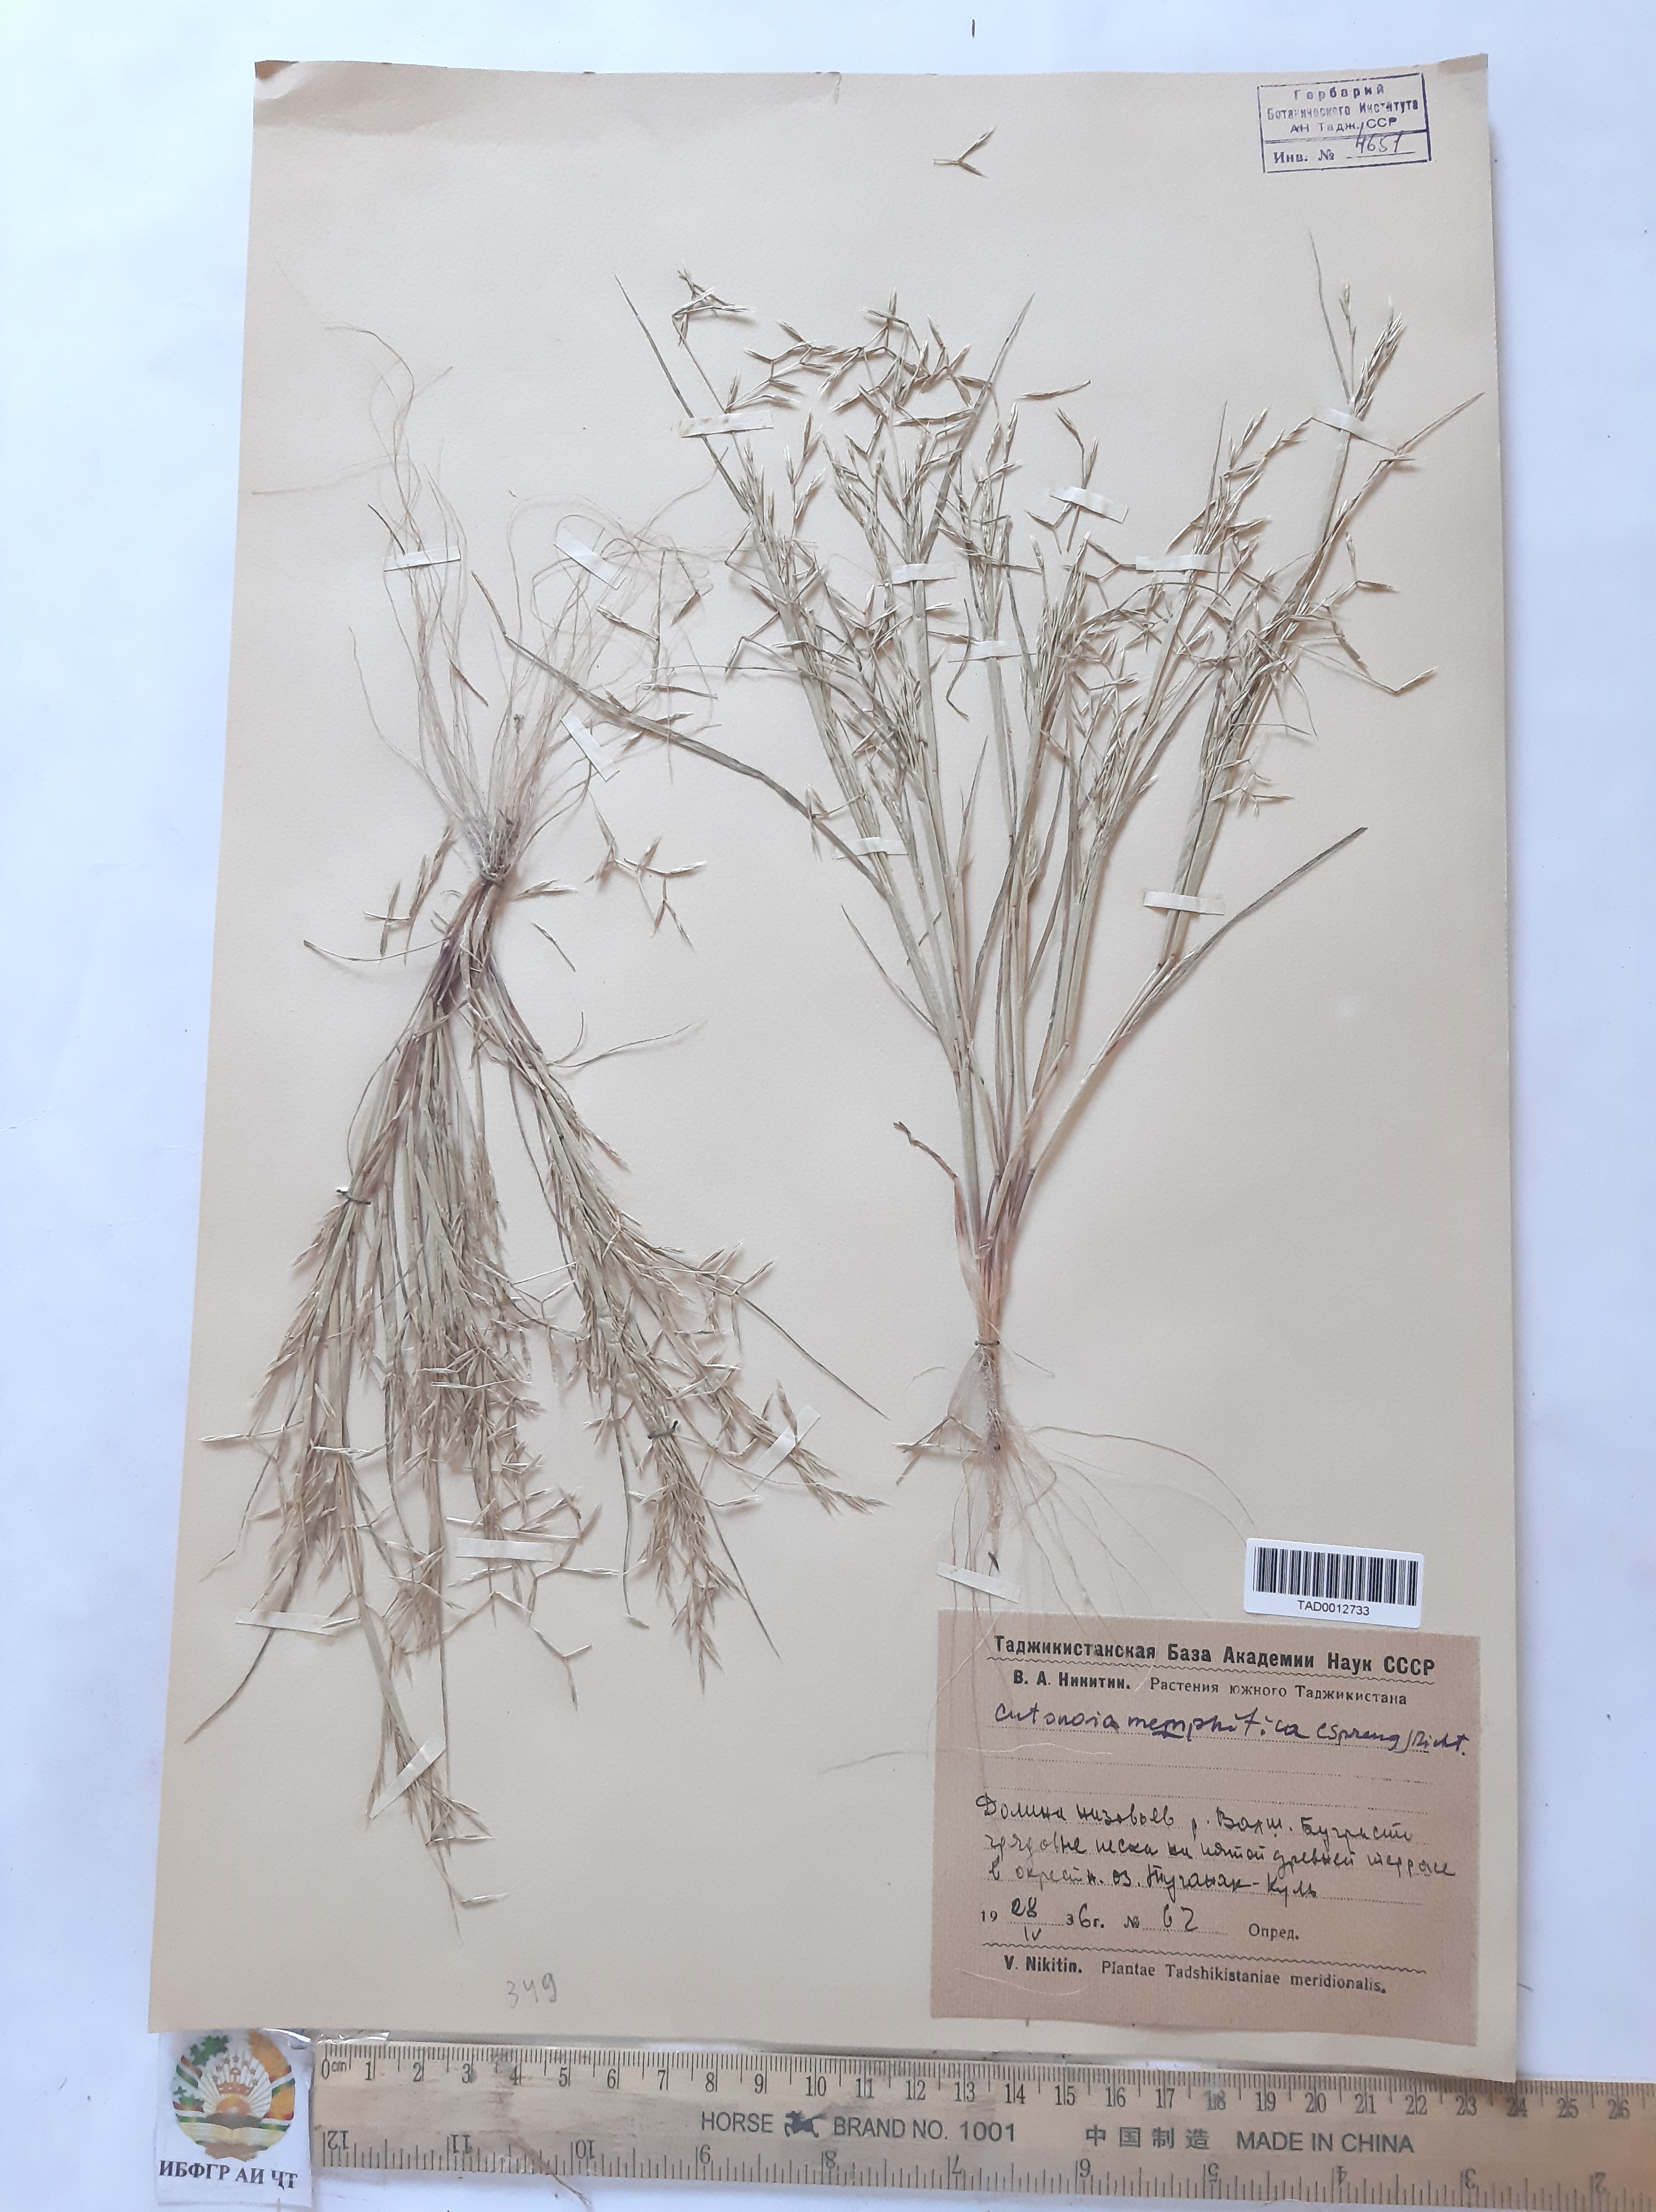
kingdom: Plantae
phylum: Tracheophyta
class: Liliopsida
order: Poales
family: Poaceae
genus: Cutandia
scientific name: Cutandia memphitica
